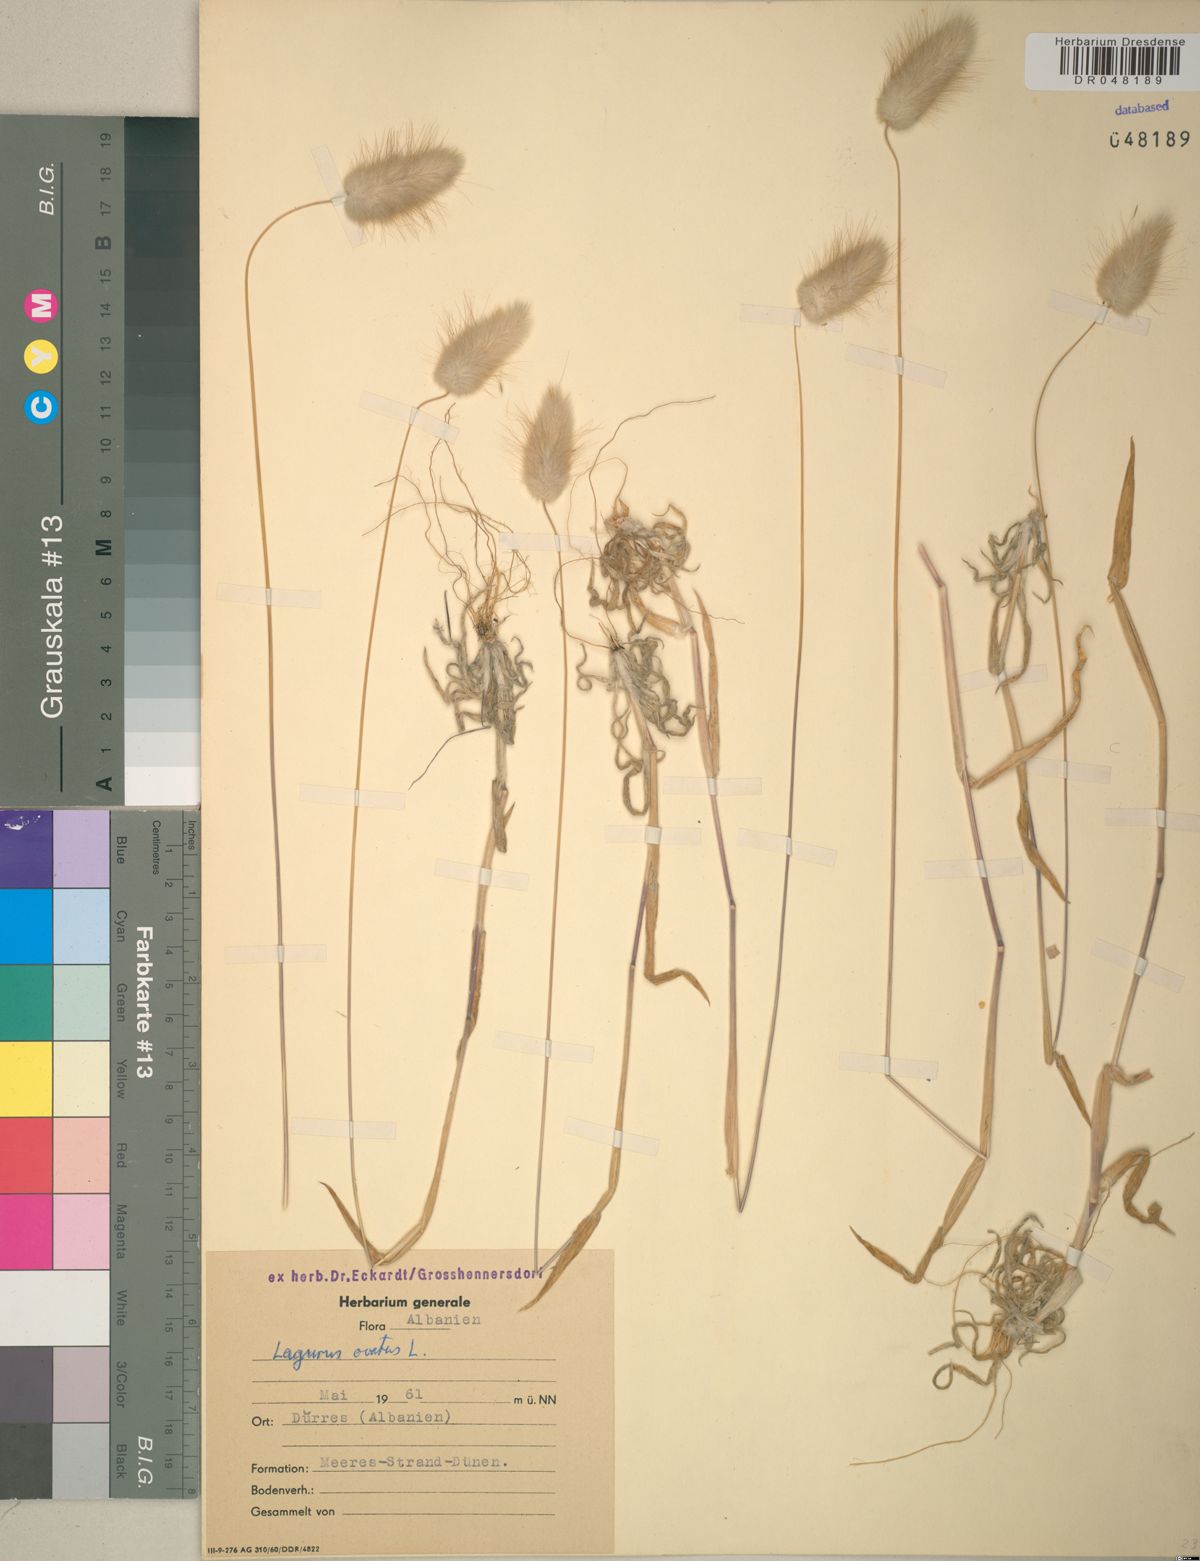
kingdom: Plantae
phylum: Tracheophyta
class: Liliopsida
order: Poales
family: Poaceae
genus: Lagurus
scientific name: Lagurus ovatus
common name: Hare's-tail
